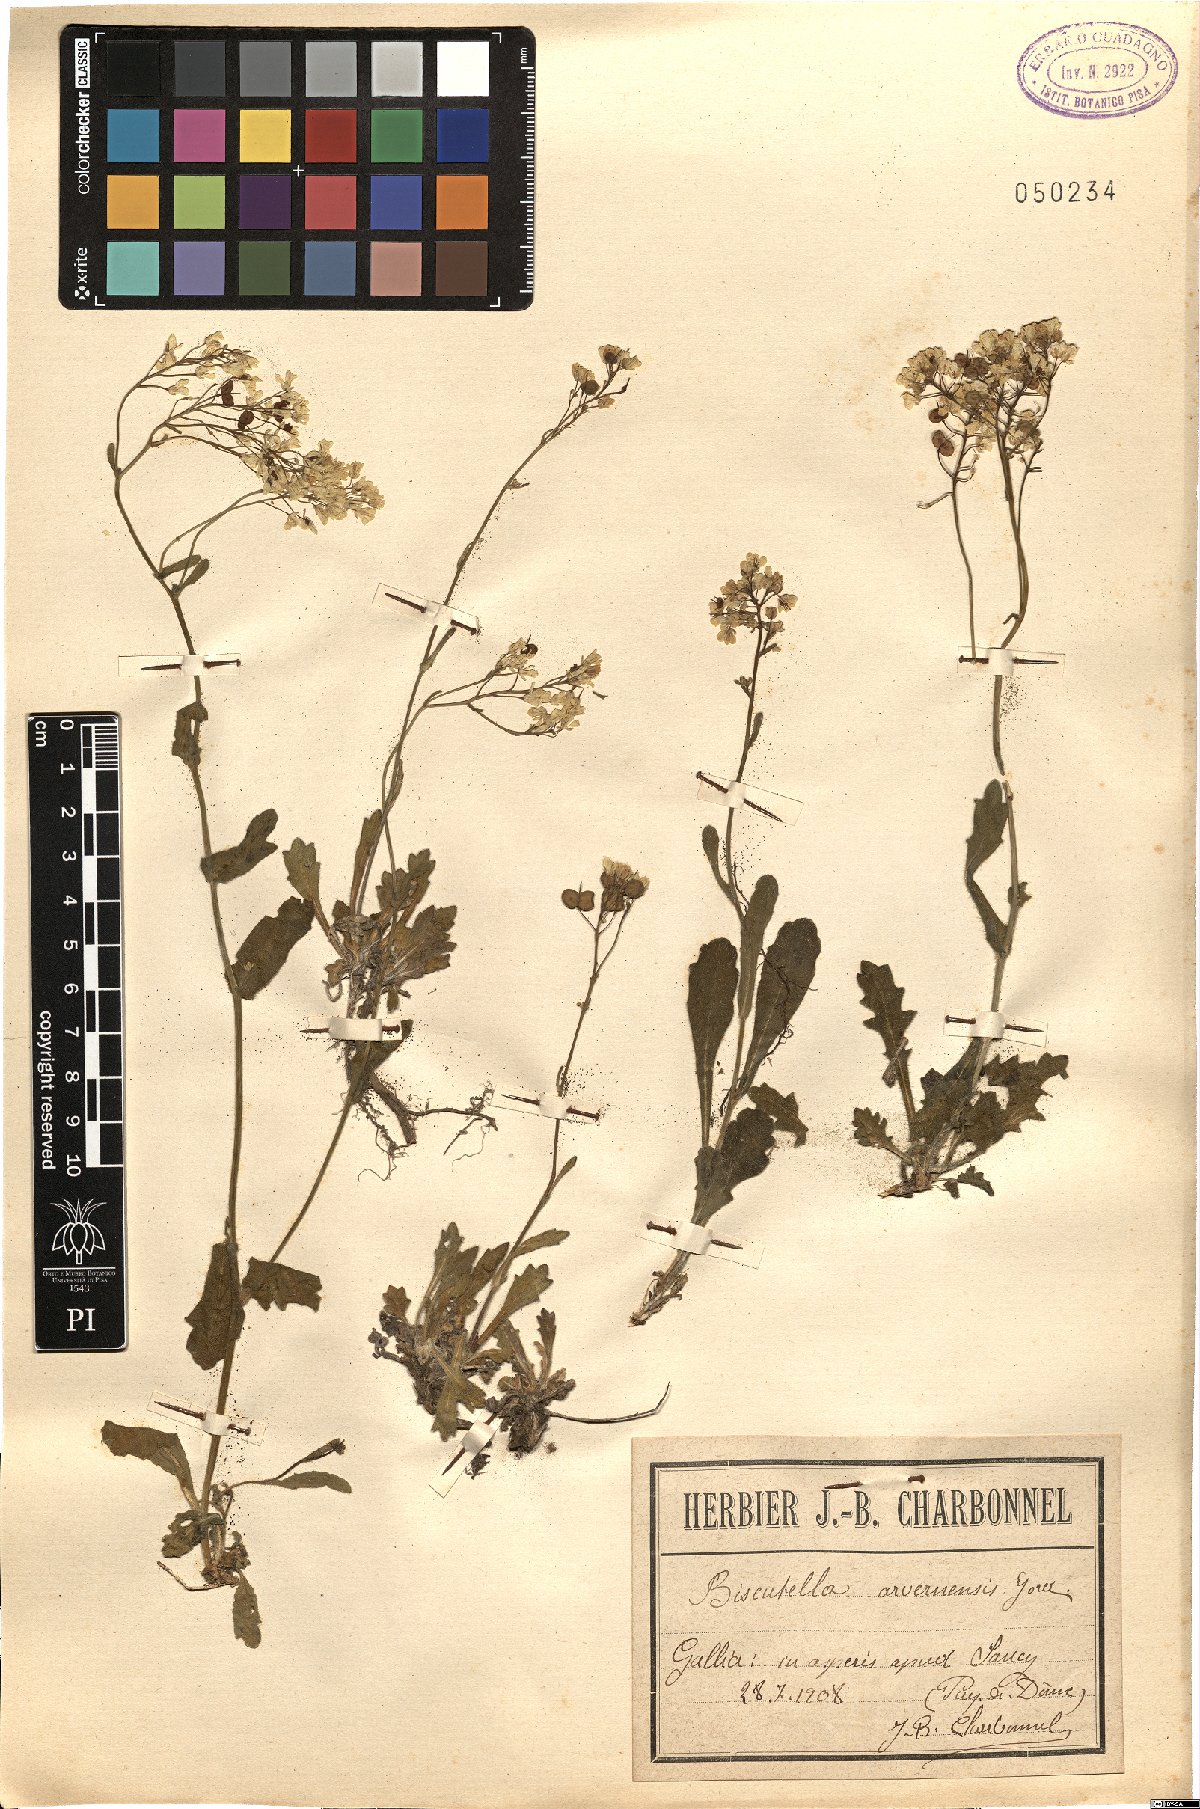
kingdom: Plantae
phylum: Tracheophyta
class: Magnoliopsida
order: Brassicales
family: Brassicaceae
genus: Biscutella
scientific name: Biscutella arvernensis
